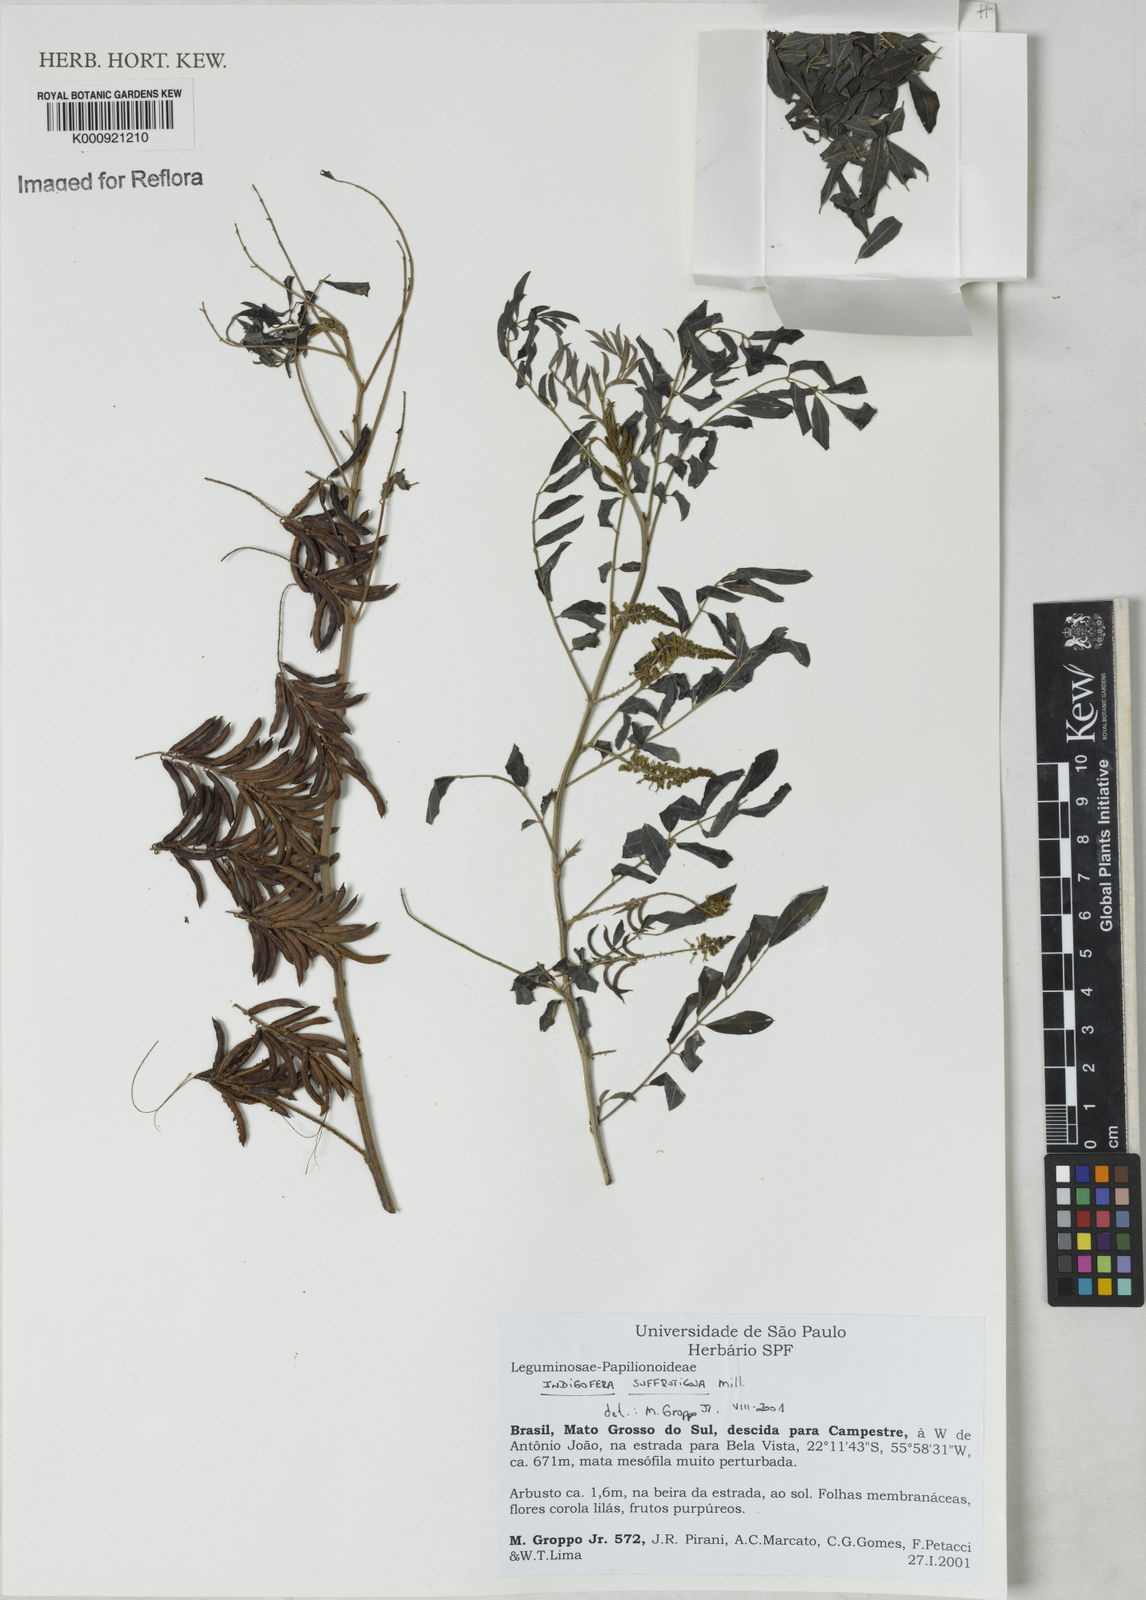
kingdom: Plantae
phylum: Tracheophyta
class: Magnoliopsida
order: Fabales
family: Fabaceae
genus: Indigofera
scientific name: Indigofera suffruticosa
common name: Anil de pasto
